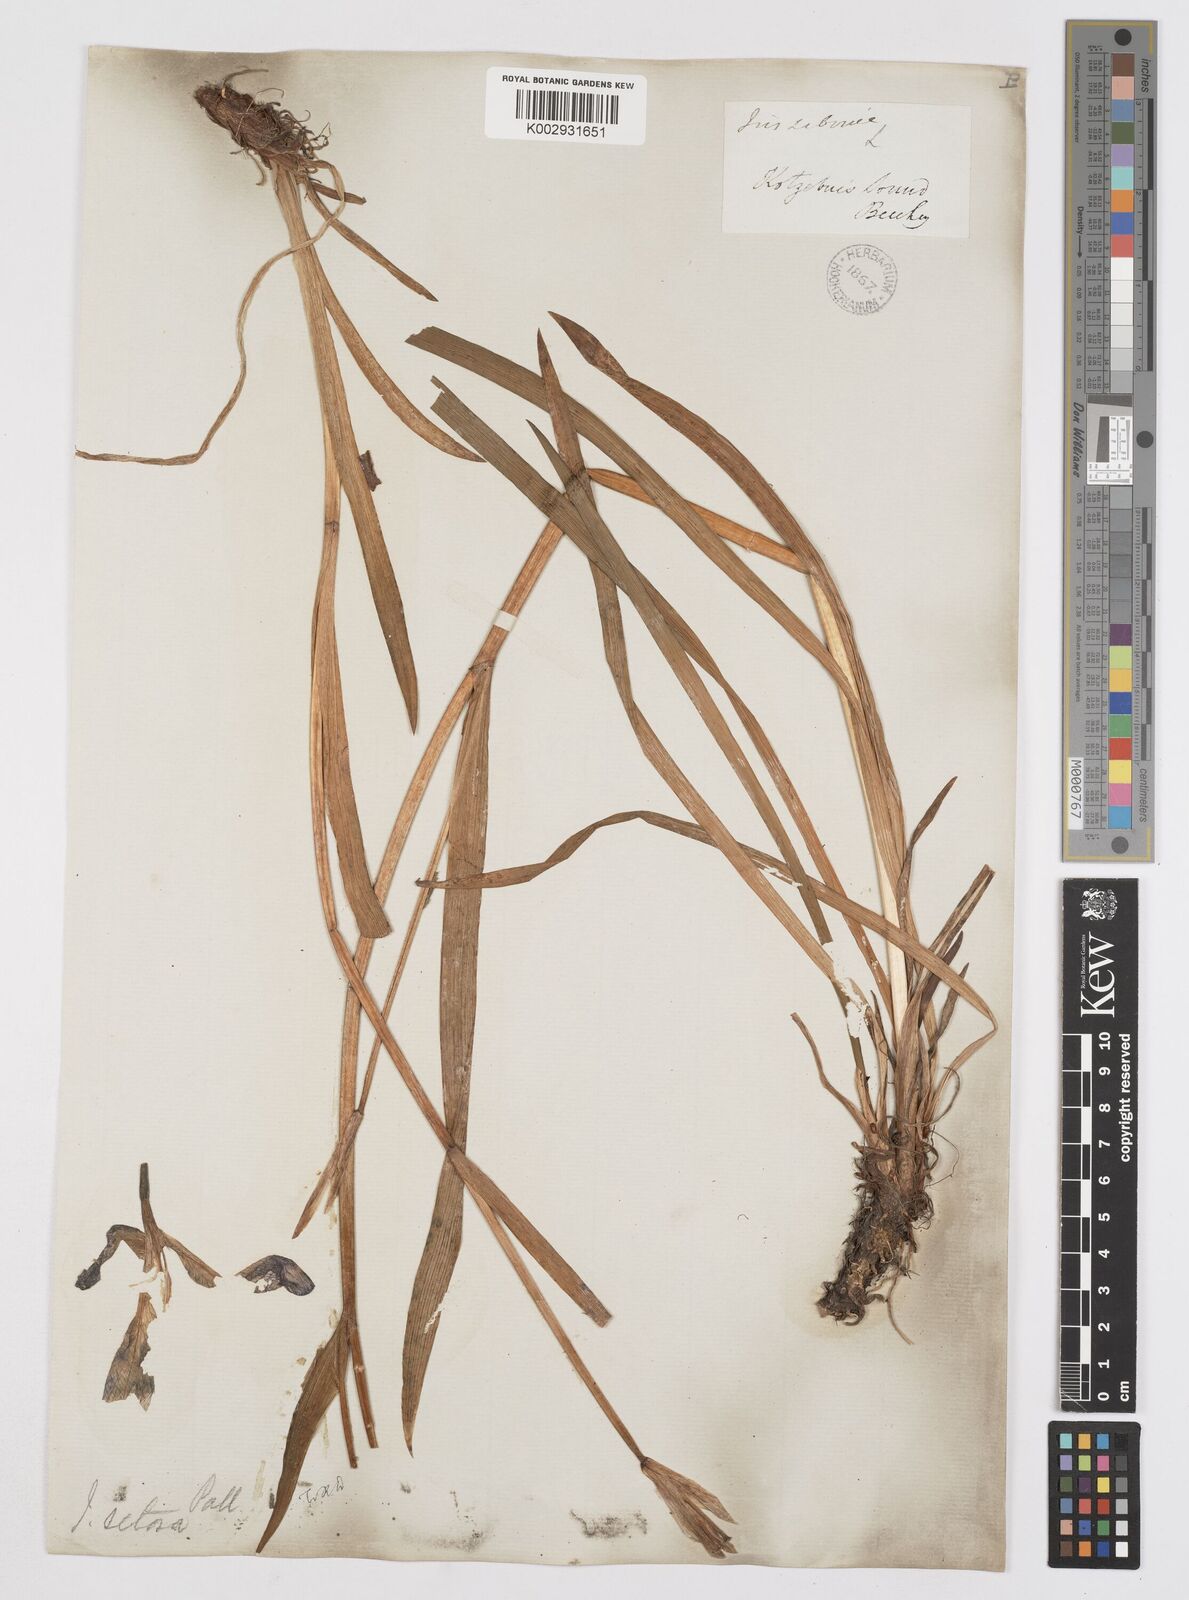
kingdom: Plantae
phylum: Tracheophyta
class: Liliopsida
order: Asparagales
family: Iridaceae
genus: Iris
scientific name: Iris setosa
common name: Arctic blue flag
